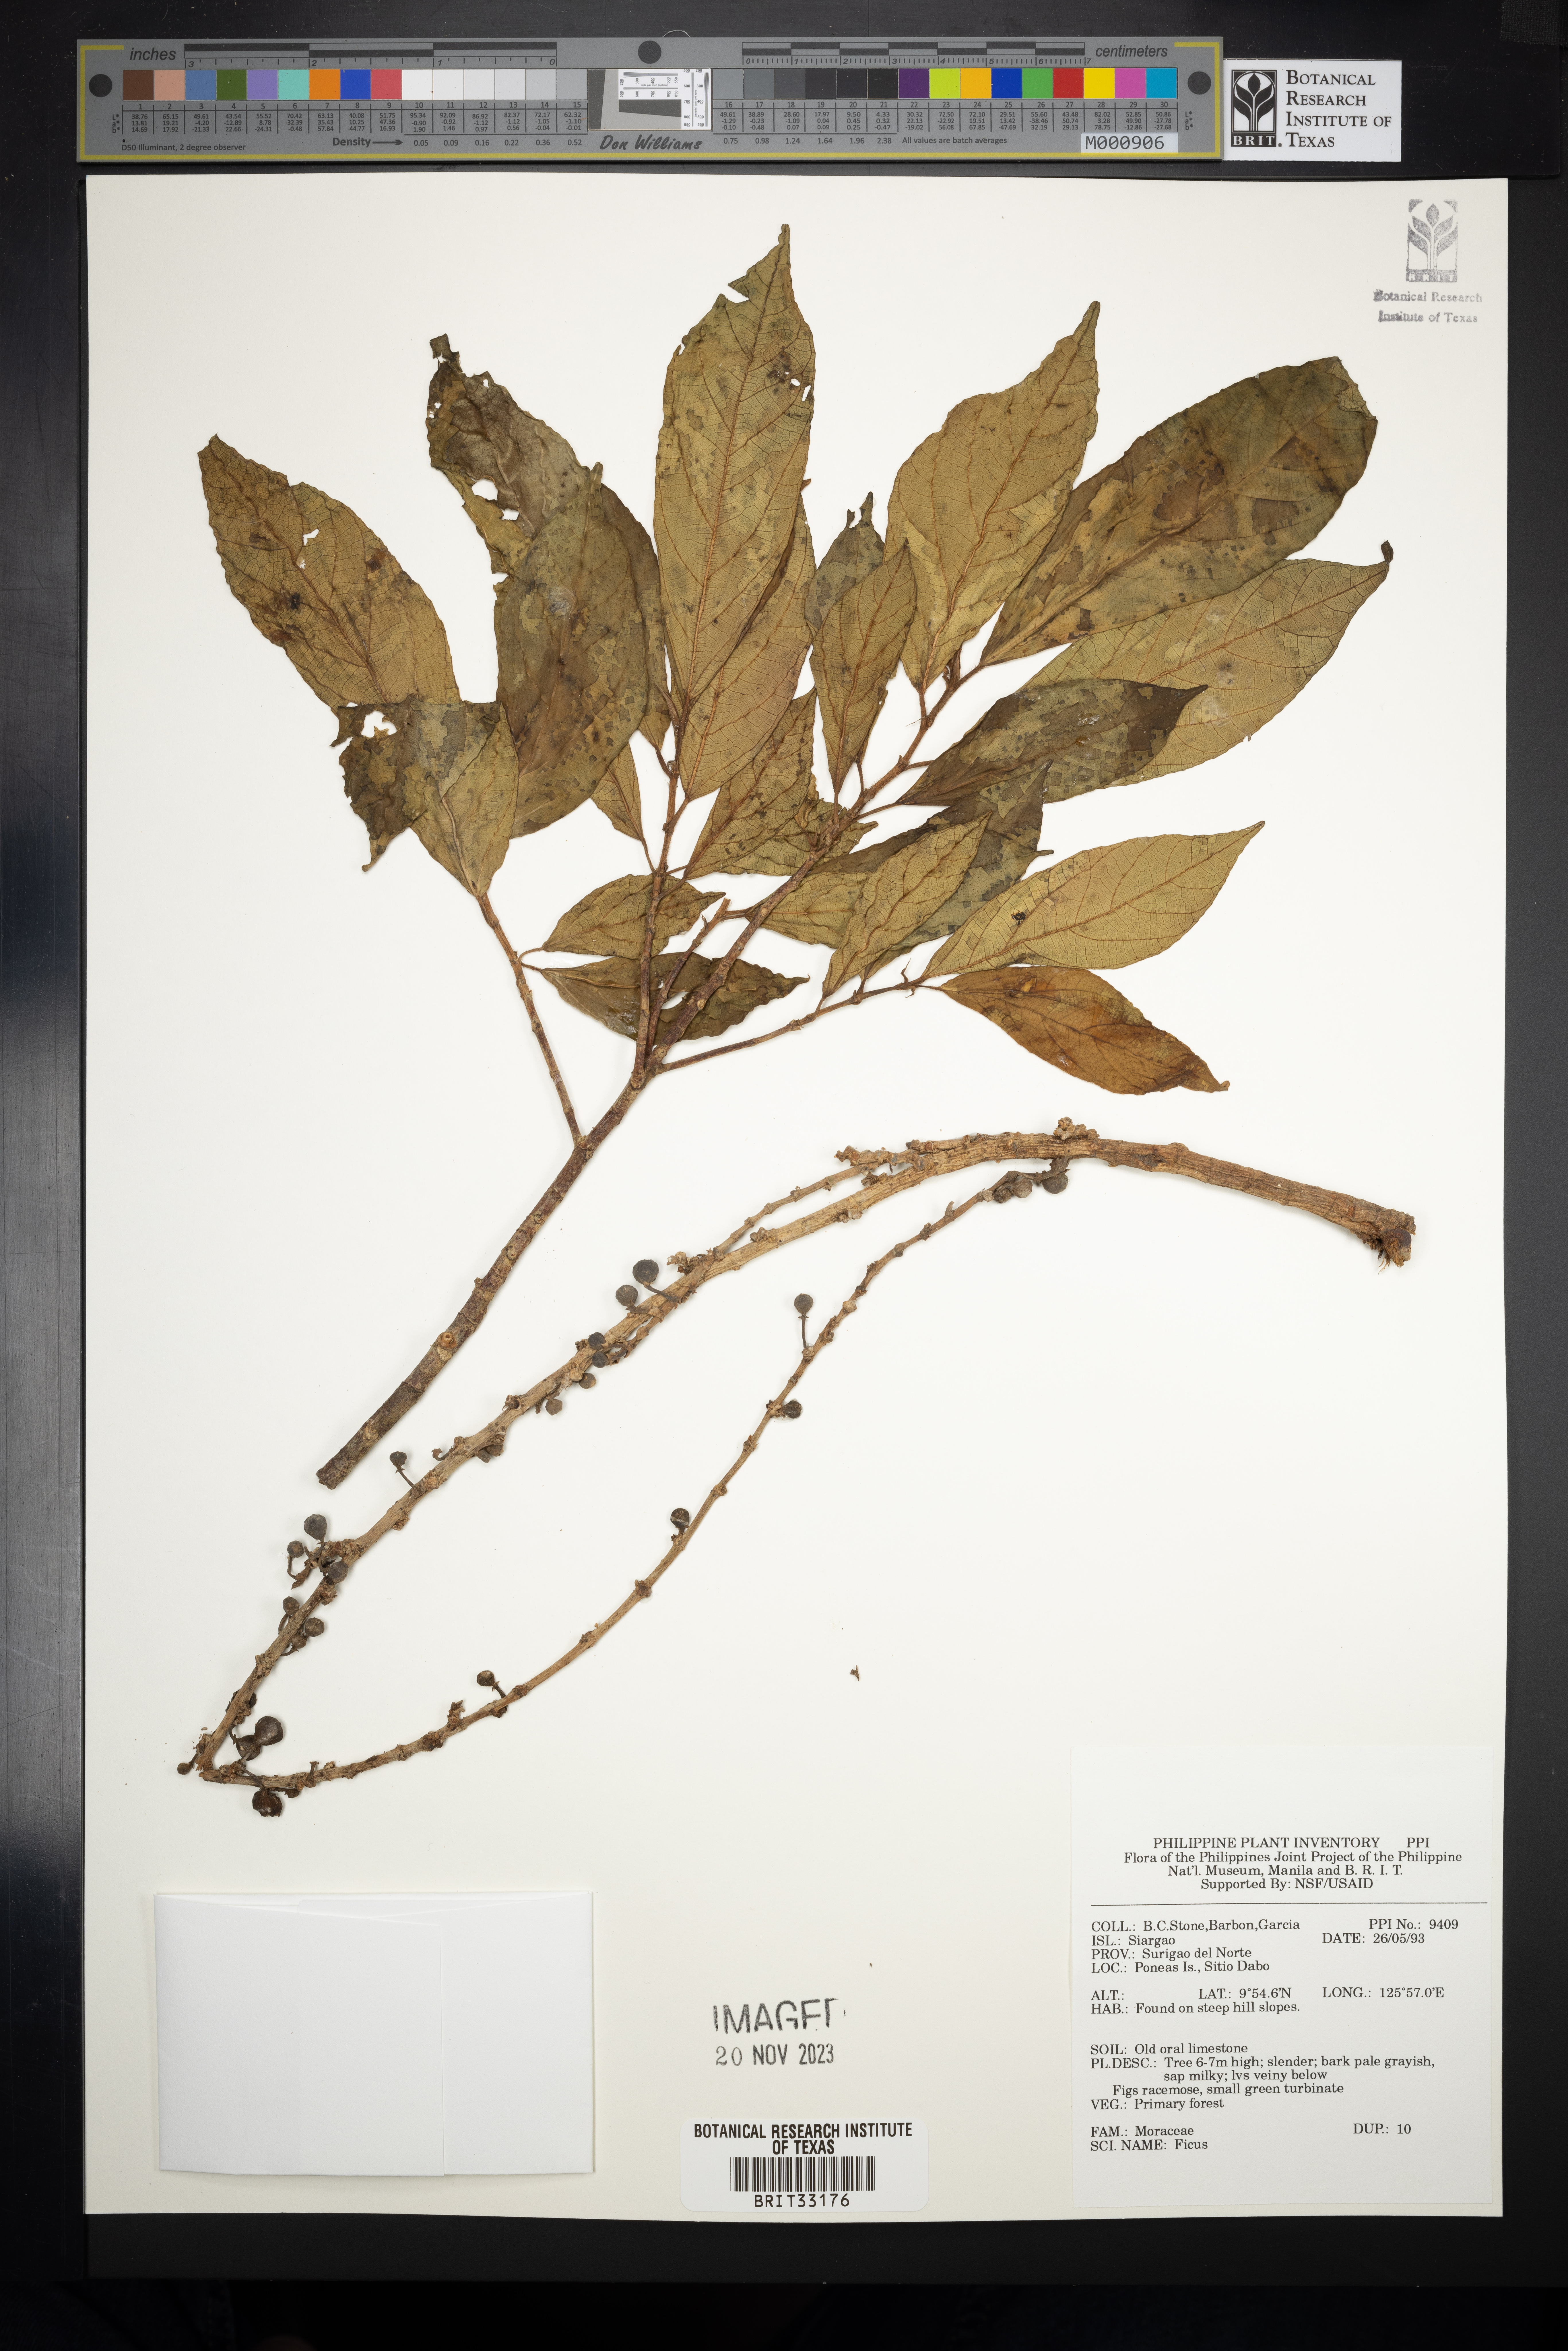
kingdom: Plantae
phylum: Tracheophyta
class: Magnoliopsida
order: Rosales
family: Moraceae
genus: Ficus
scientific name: Ficus
